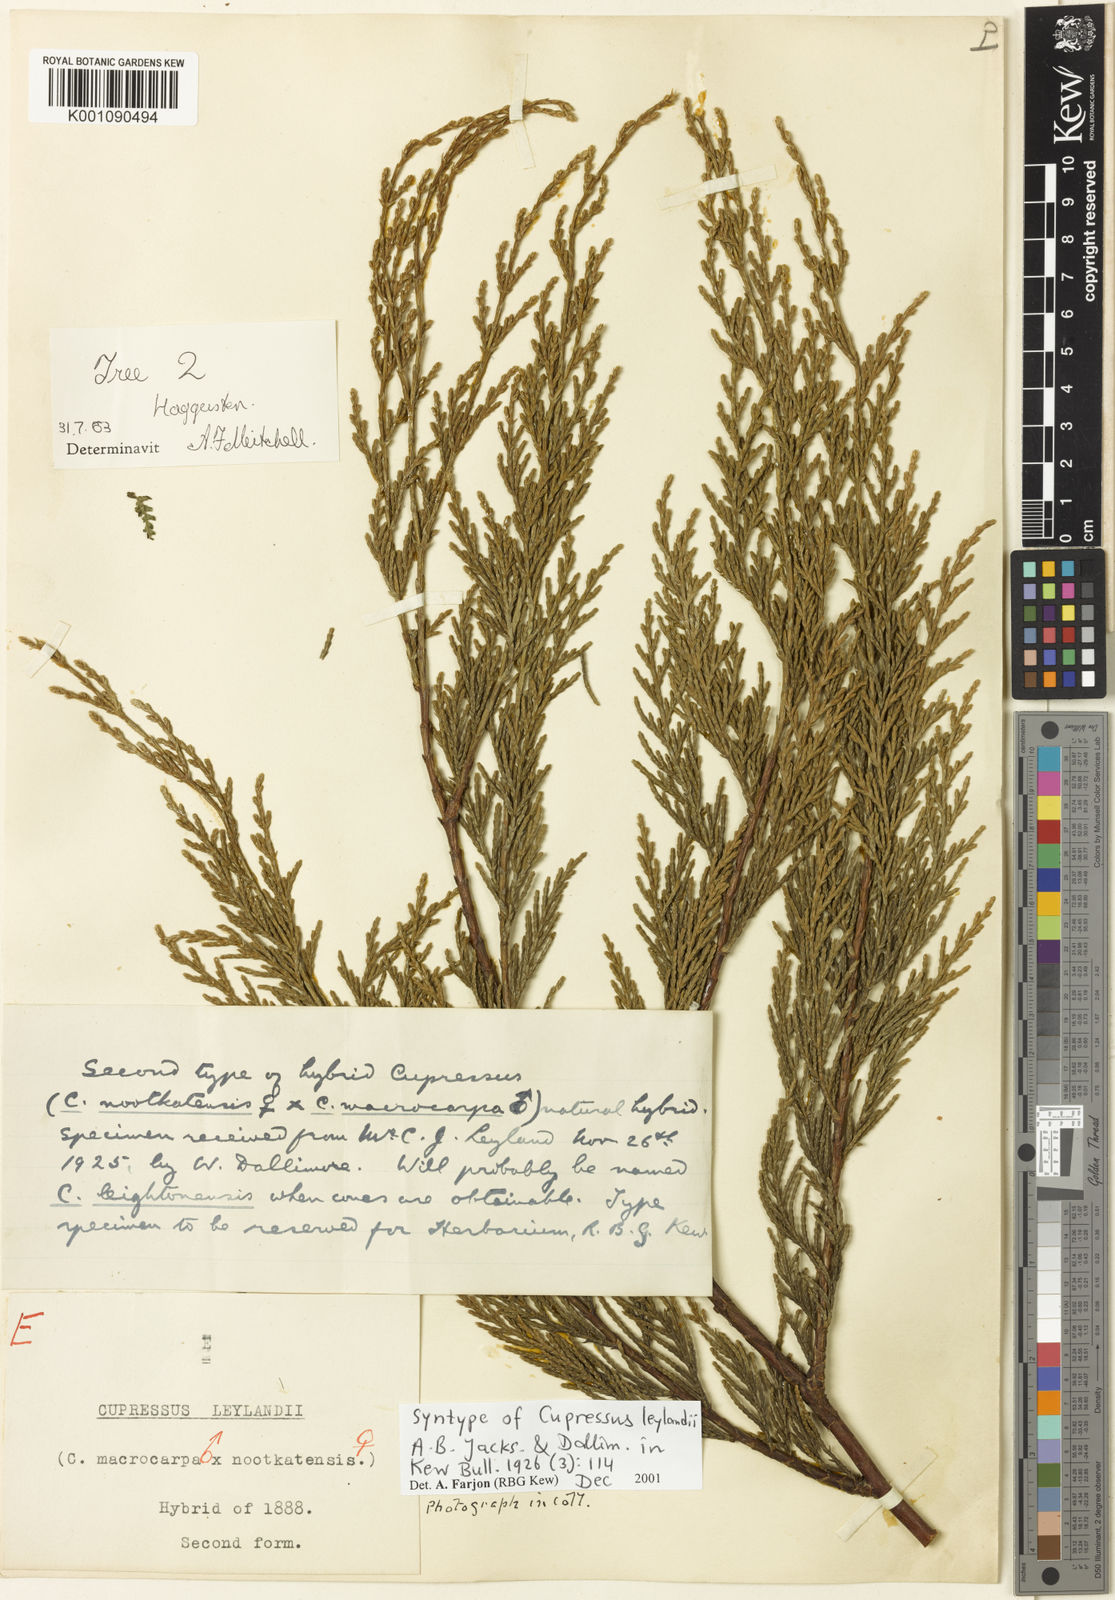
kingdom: Plantae
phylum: Tracheophyta
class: Pinopsida
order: Pinales
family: Cupressaceae
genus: Hesperotropsis
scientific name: Hesperotropsis leylandii
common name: Leyland cypress
